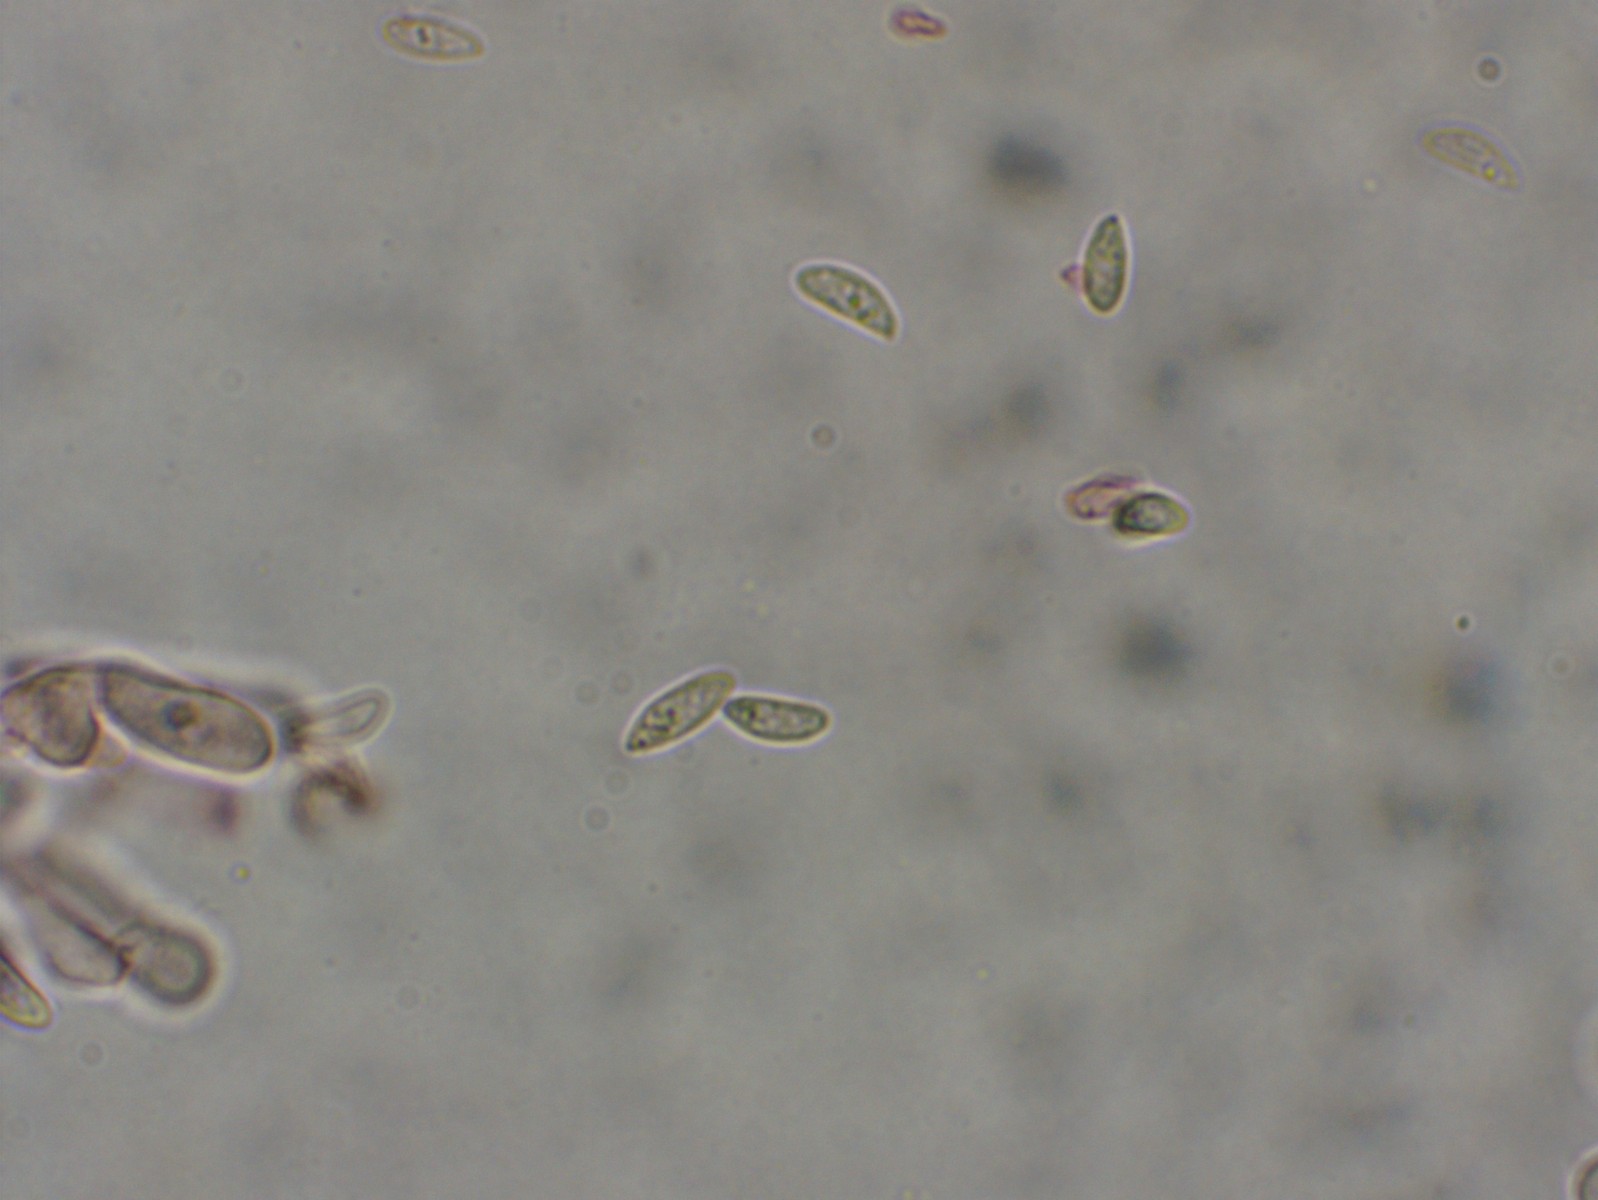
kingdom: Fungi
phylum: Basidiomycota
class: Agaricomycetes
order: Agaricales
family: Crepidotaceae
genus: Crepidotus
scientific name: Crepidotus epibryus
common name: førne-muslingesvamp
